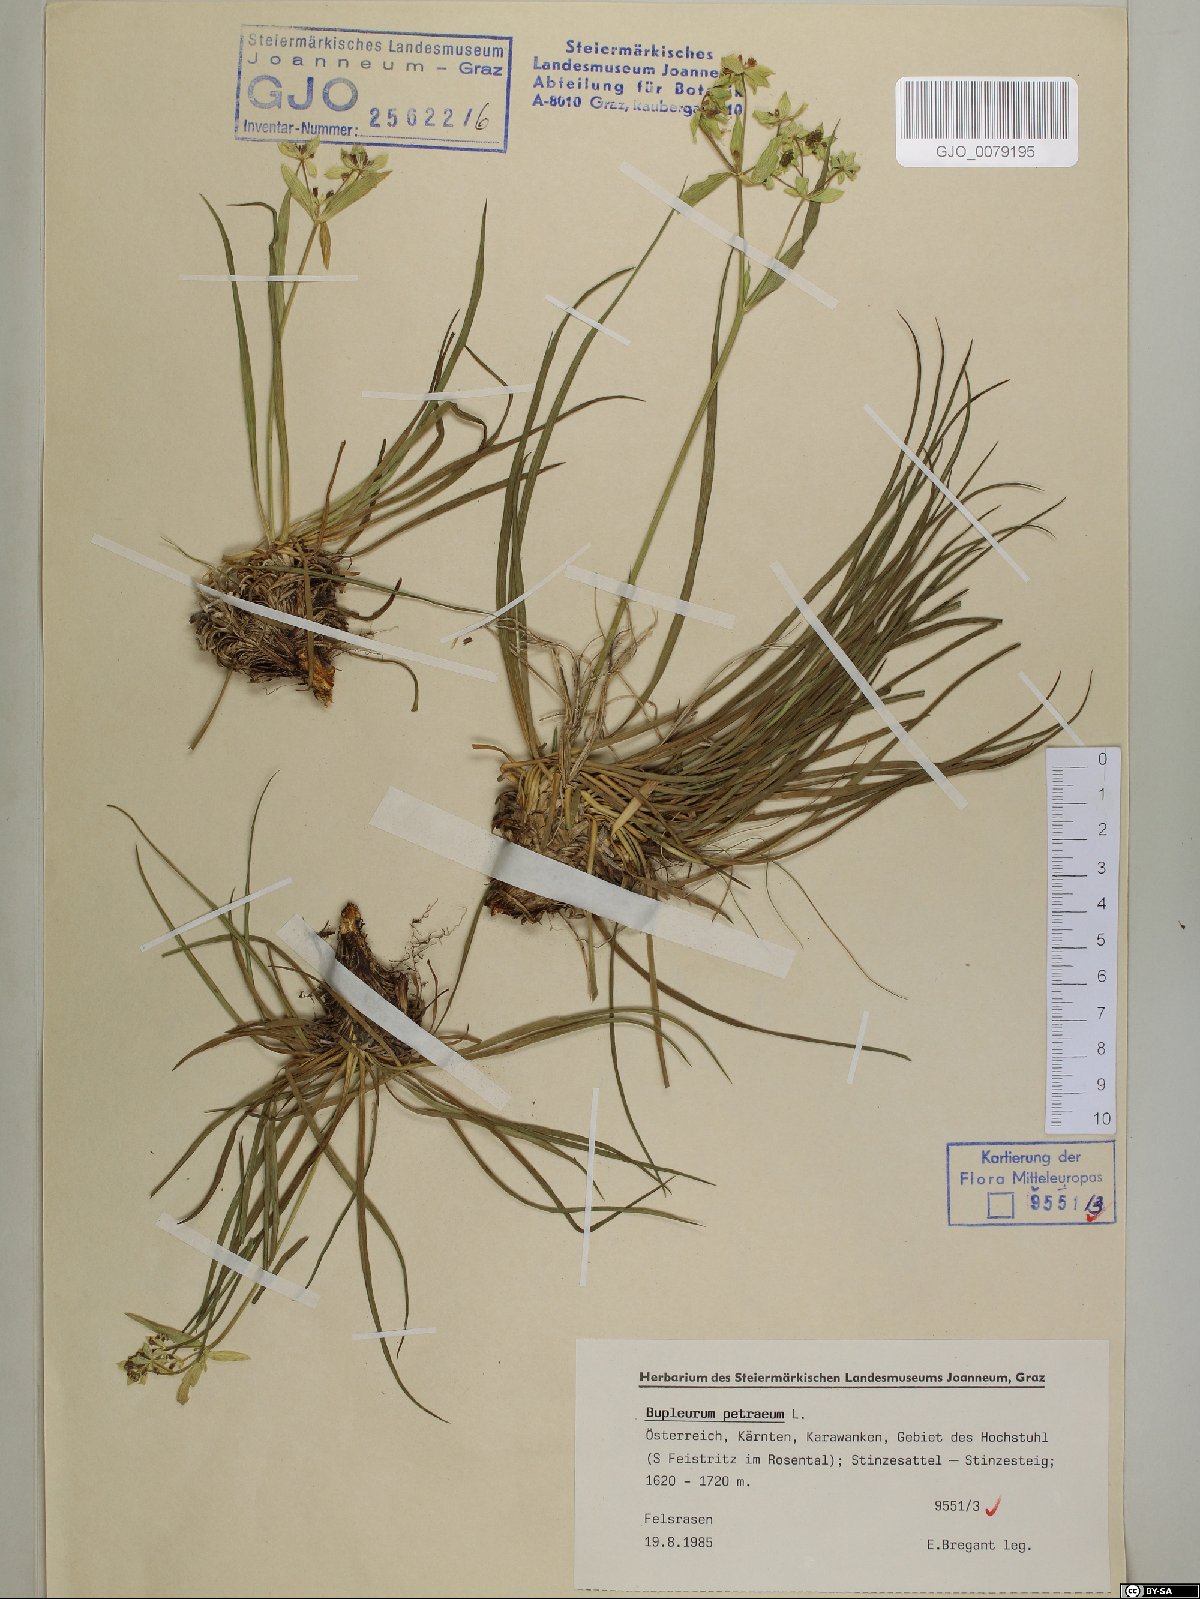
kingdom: Plantae
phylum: Tracheophyta
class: Magnoliopsida
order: Apiales
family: Apiaceae
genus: Bupleurum
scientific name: Bupleurum petraeum
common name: Rock hare's-ear
